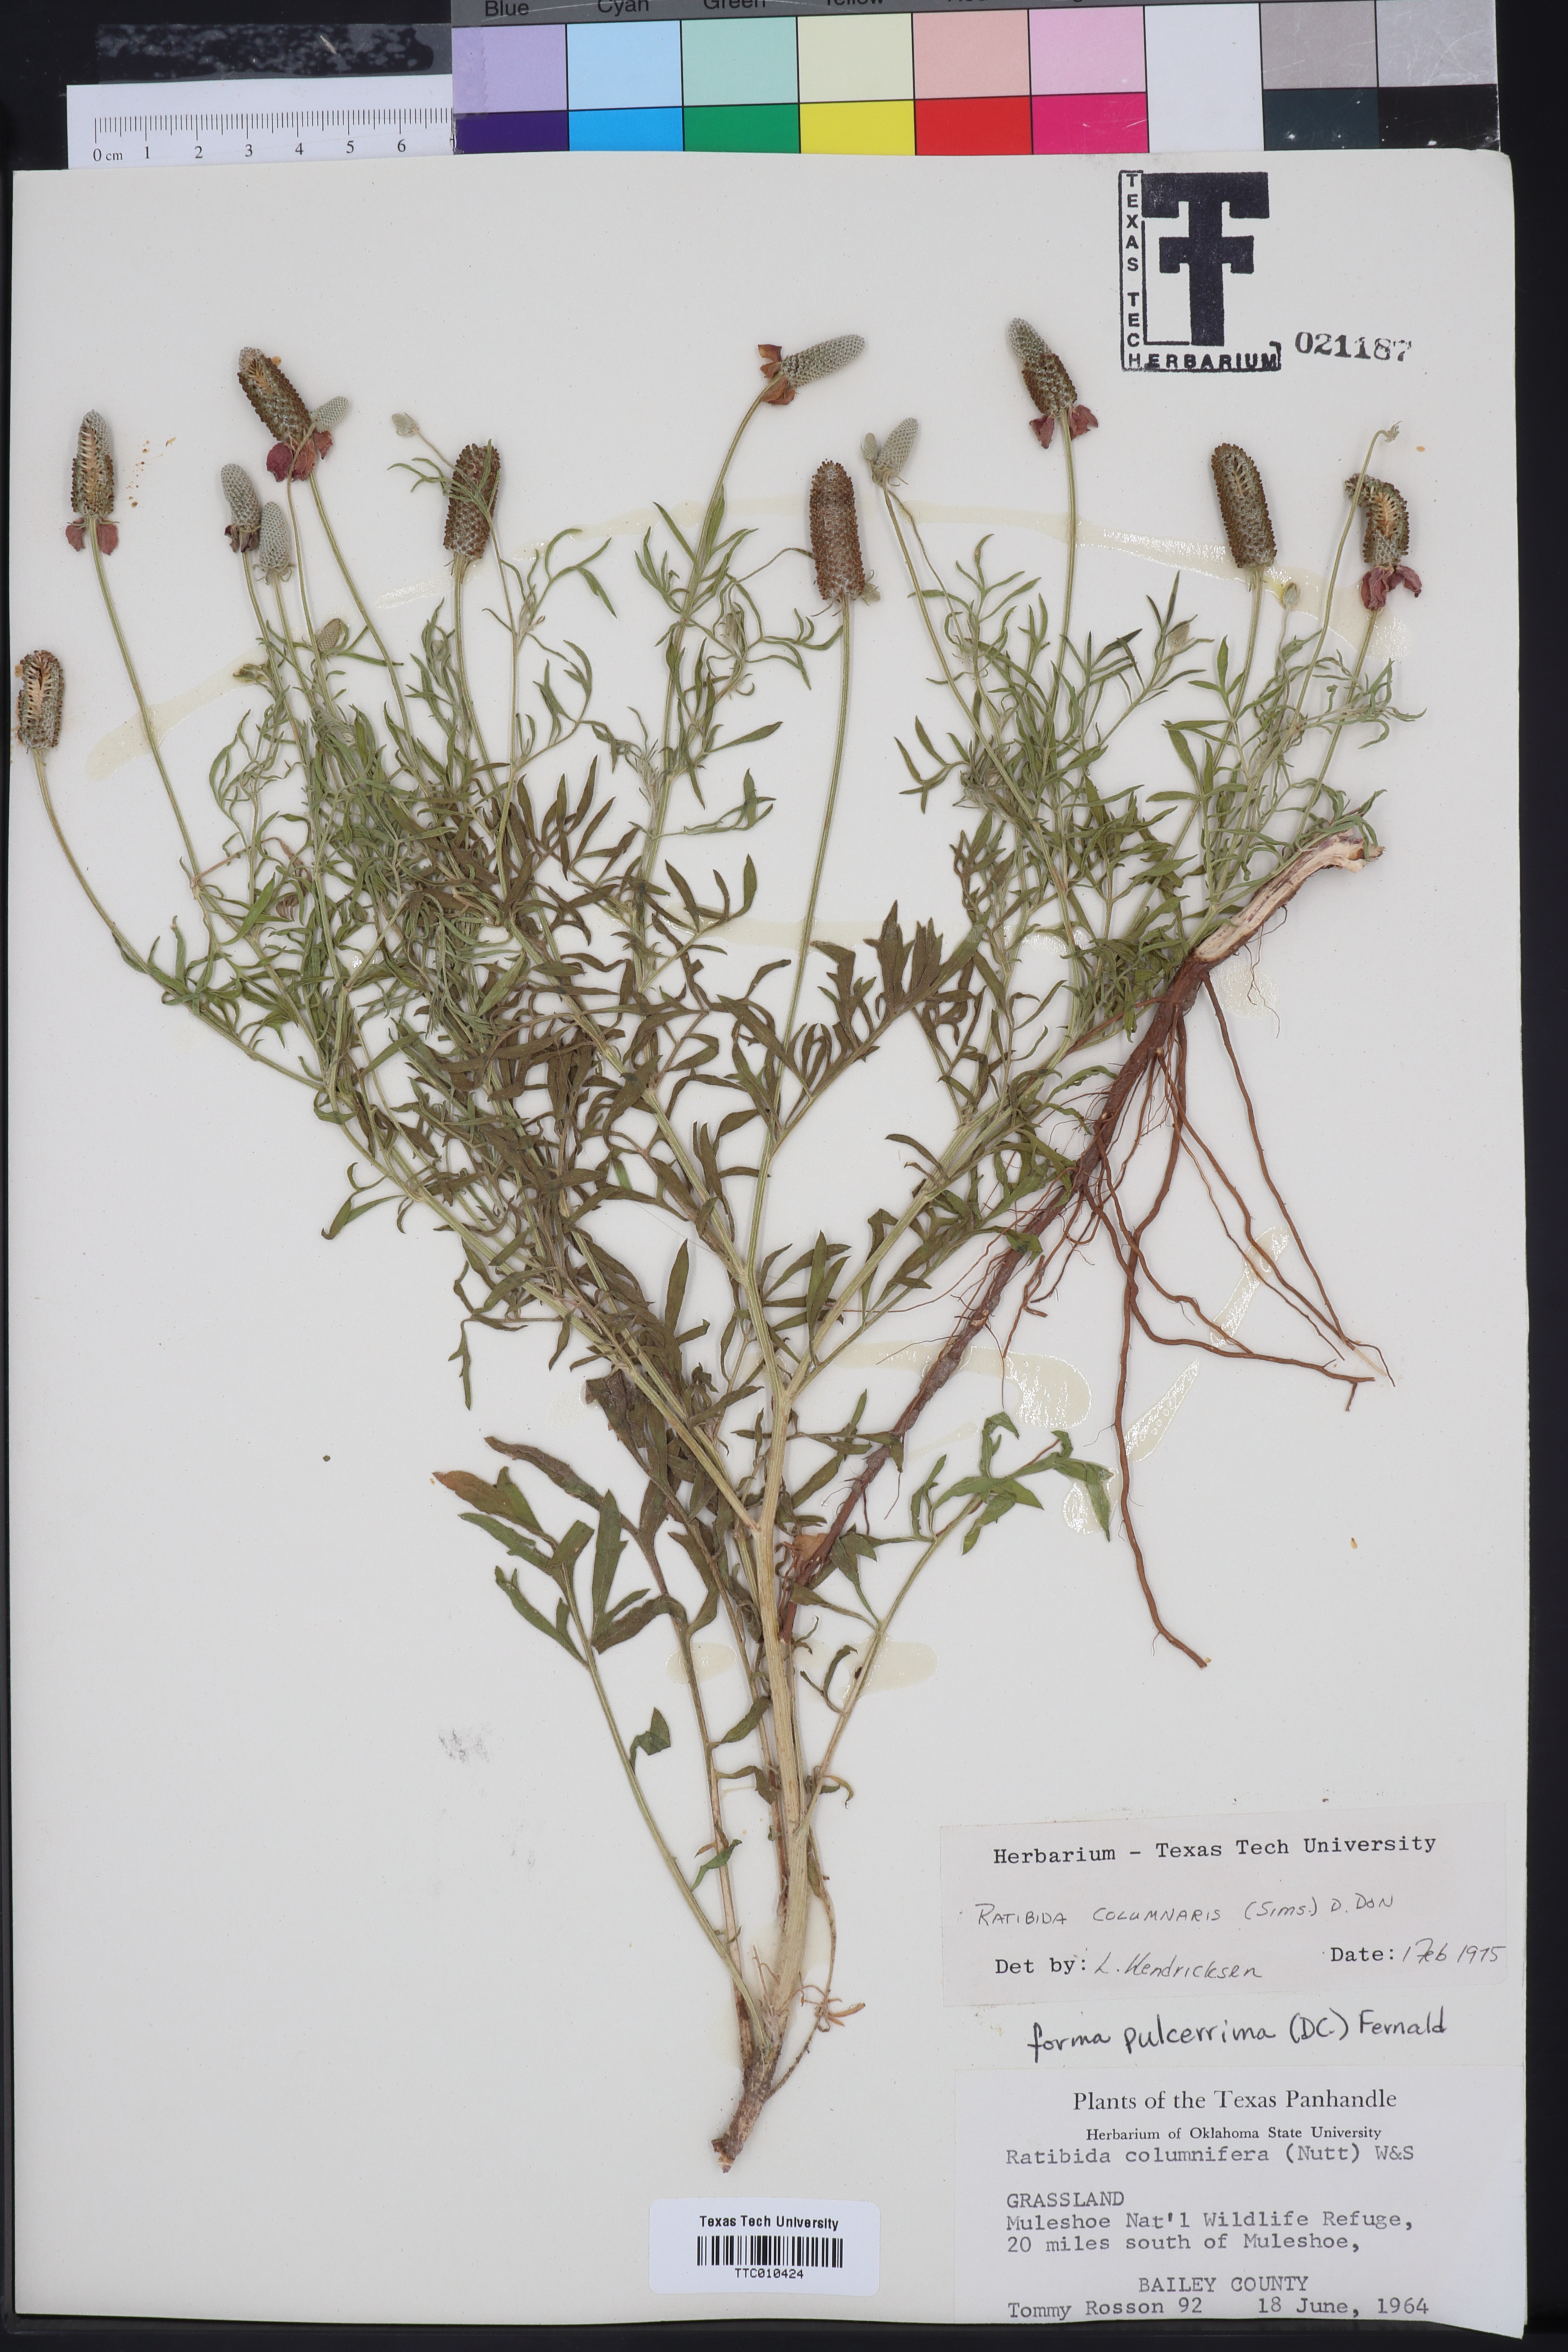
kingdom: Plantae
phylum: Tracheophyta
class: Magnoliopsida
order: Asterales
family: Asteraceae
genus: Ratibida
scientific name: Ratibida columnifera
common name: Prairie coneflower
